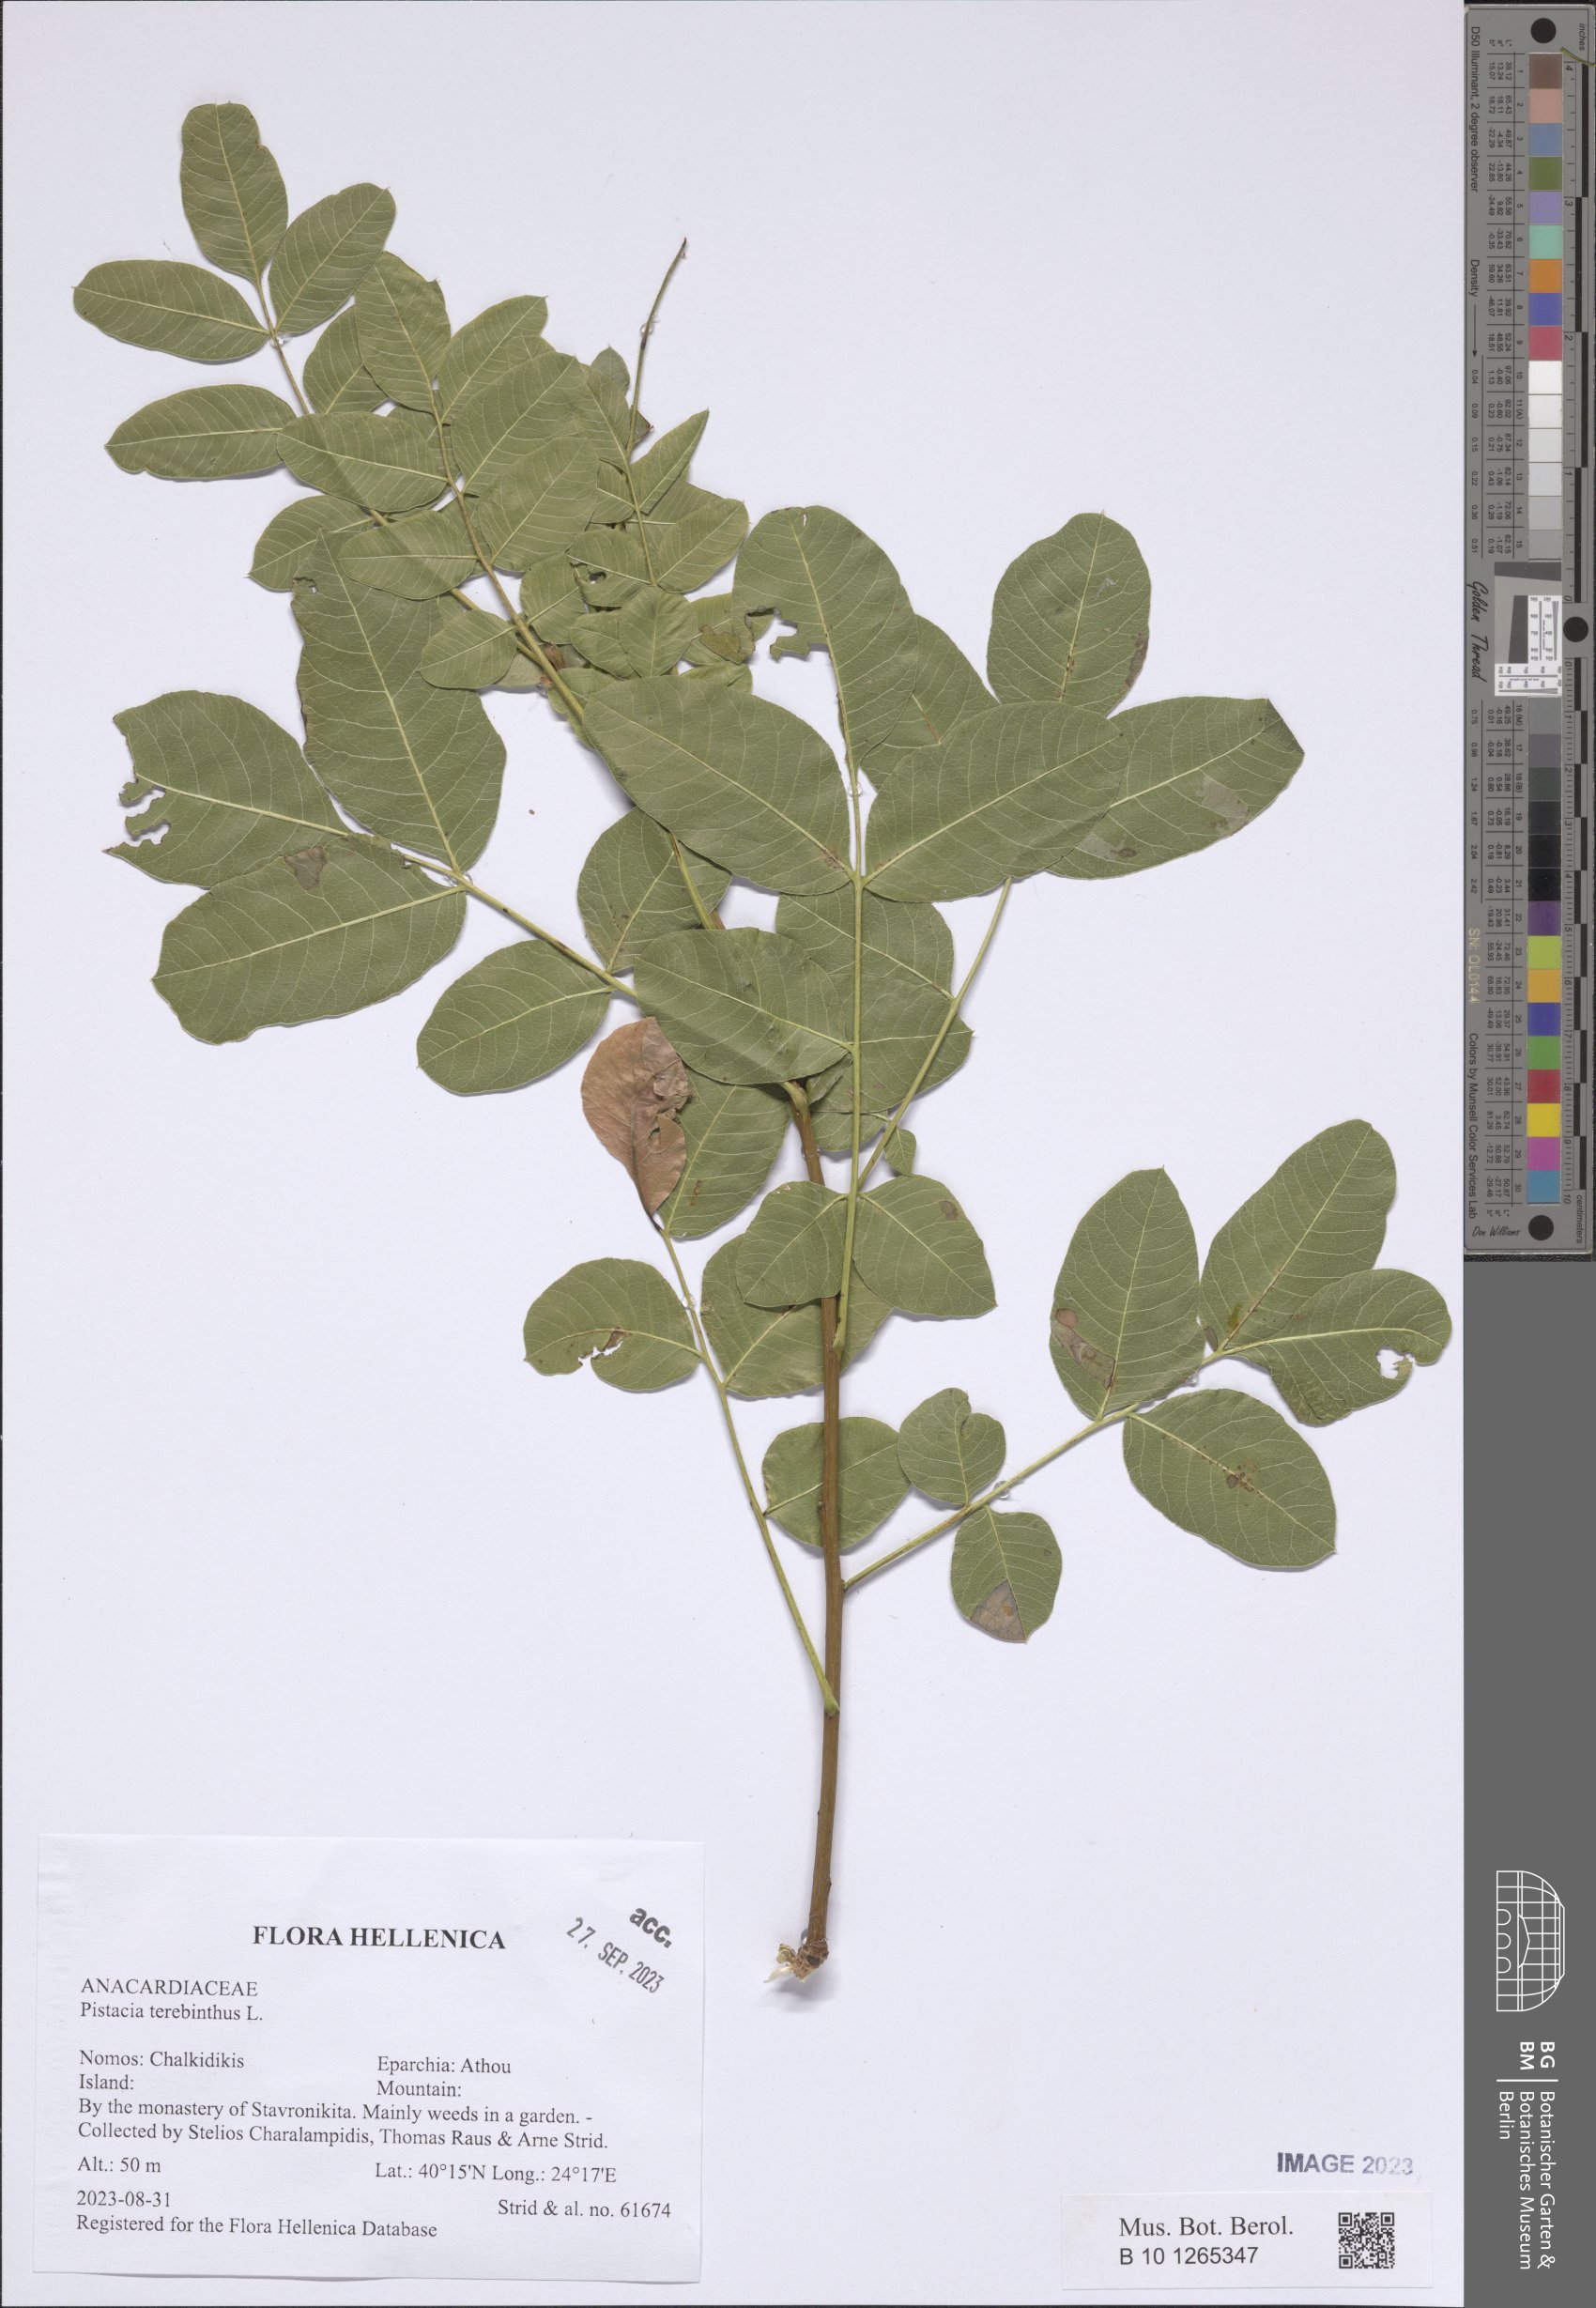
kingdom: Plantae
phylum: Tracheophyta
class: Magnoliopsida
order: Sapindales
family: Anacardiaceae
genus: Pistacia
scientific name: Pistacia terebinthus
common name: Terebinth
